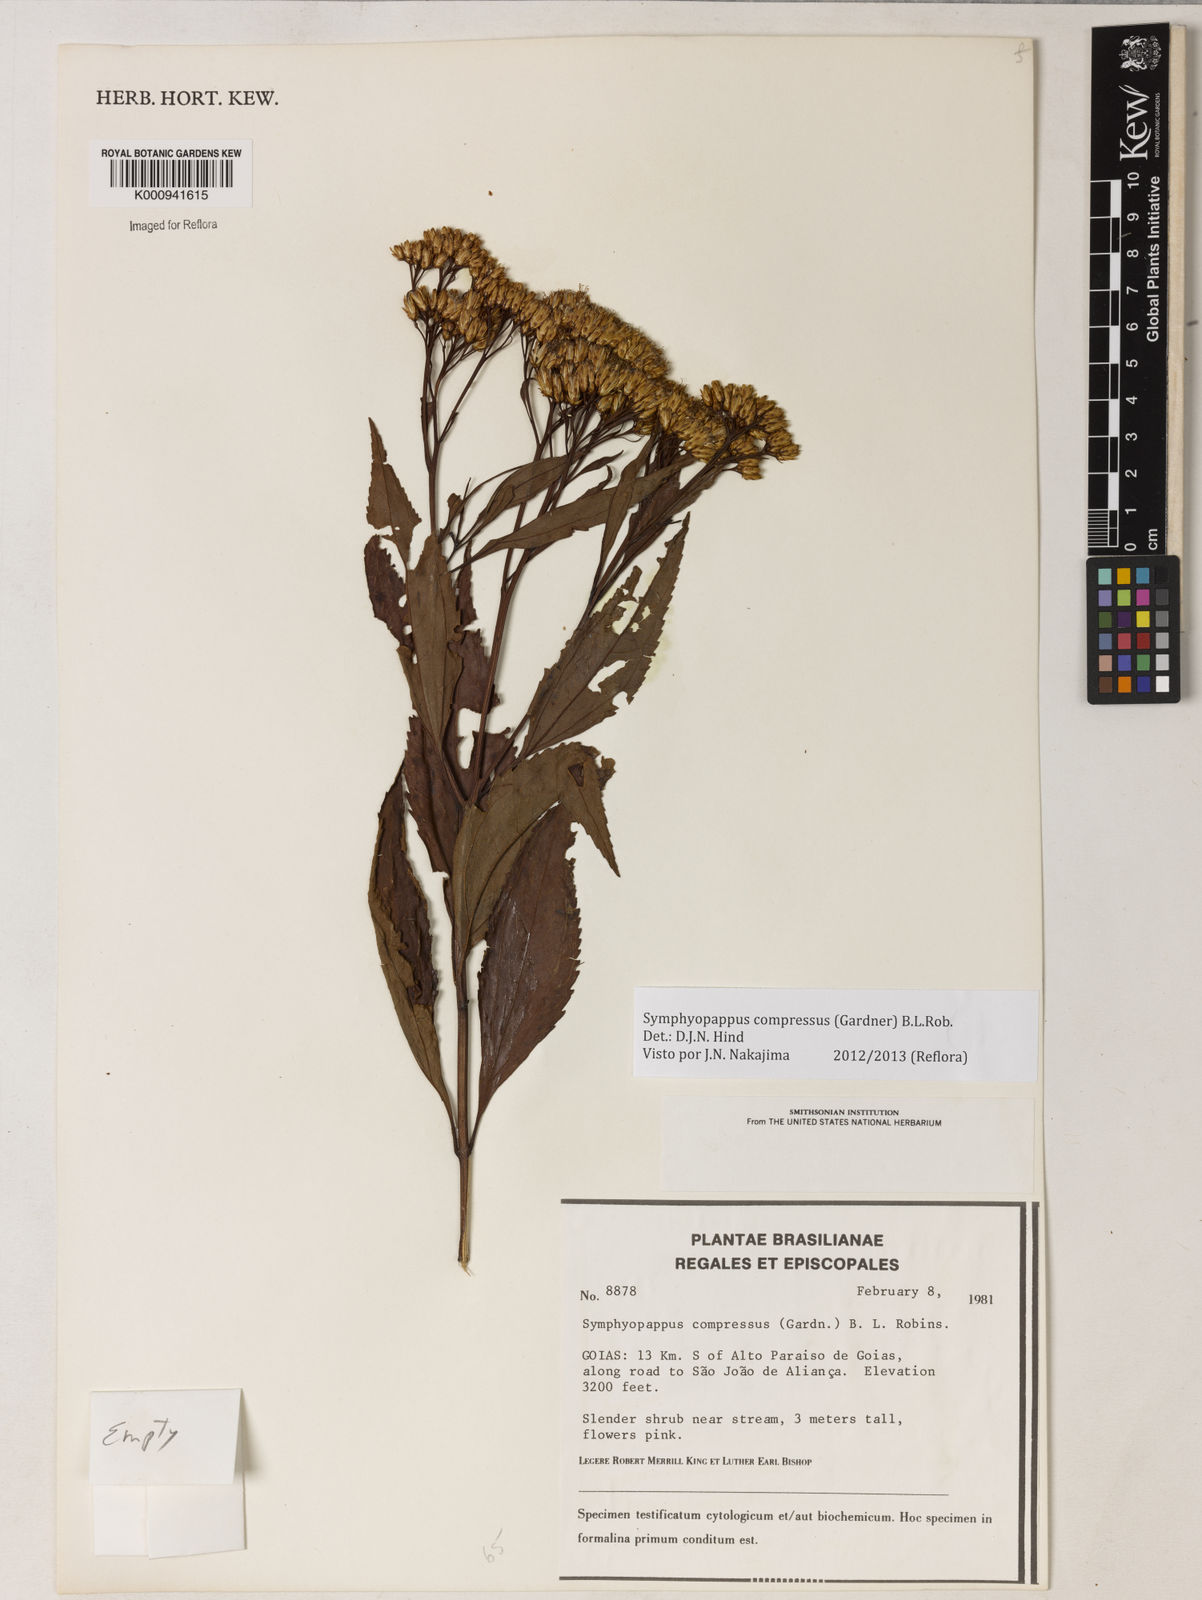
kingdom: Plantae
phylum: Tracheophyta
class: Magnoliopsida
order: Asterales
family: Asteraceae
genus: Symphyopappus
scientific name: Symphyopappus compressus
